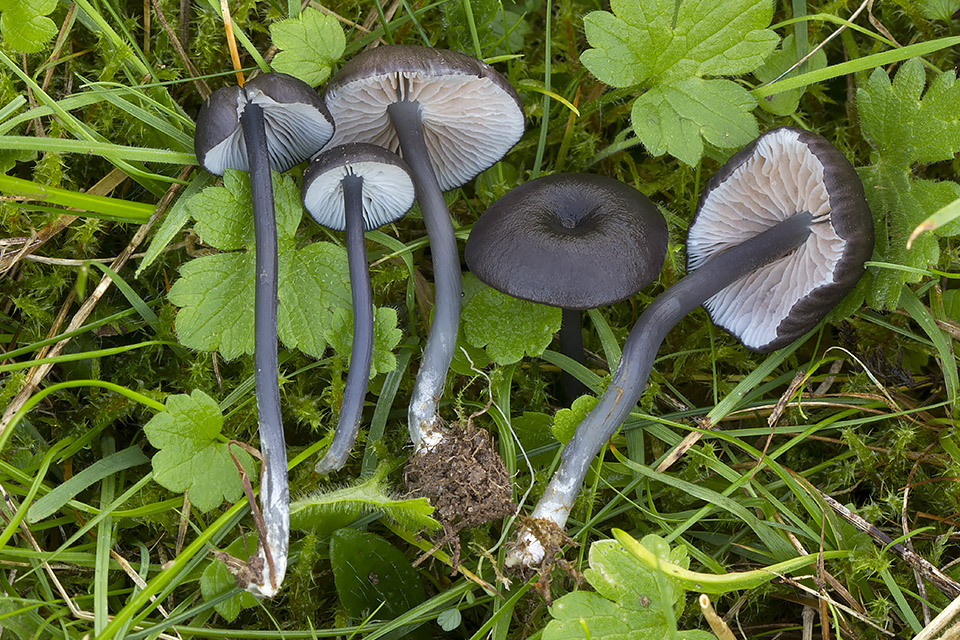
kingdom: Fungi
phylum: Basidiomycota
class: Agaricomycetes
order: Agaricales
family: Entolomataceae
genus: Entoloma
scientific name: Entoloma allospermum
